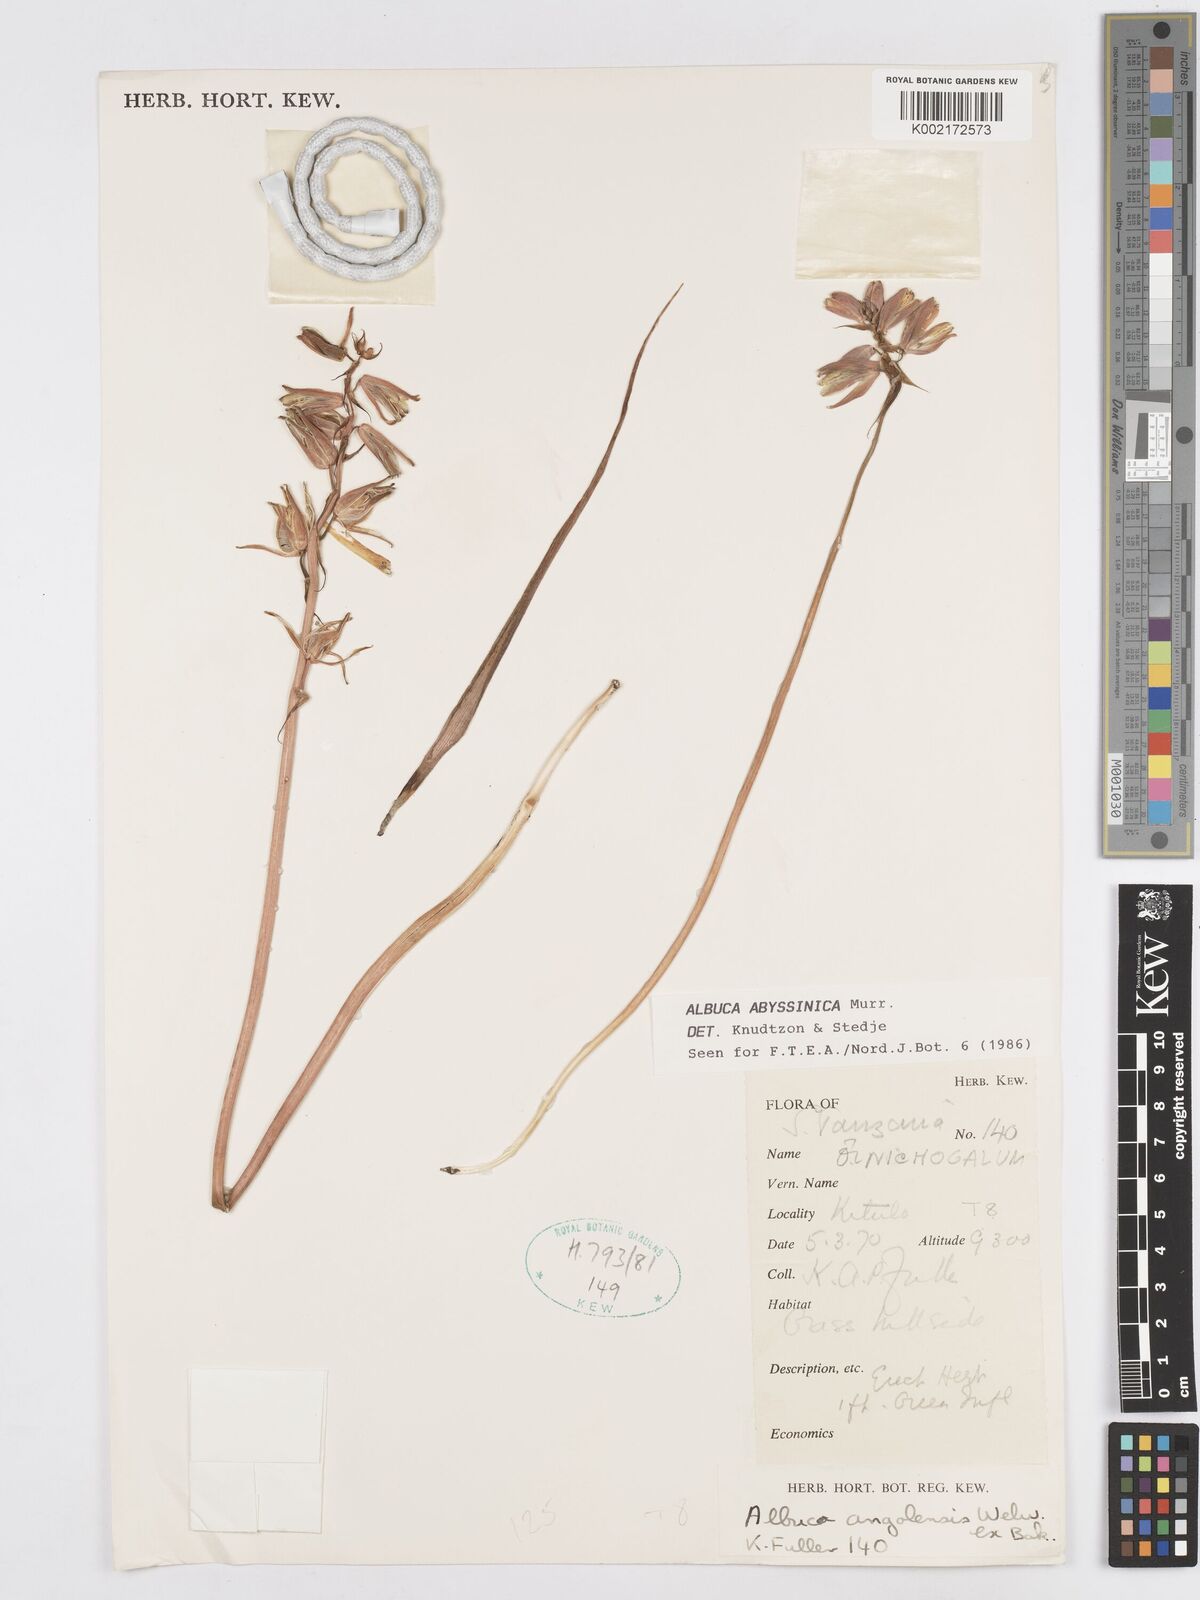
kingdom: Plantae
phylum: Tracheophyta
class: Liliopsida
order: Asparagales
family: Asparagaceae
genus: Albuca
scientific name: Albuca abyssinica
